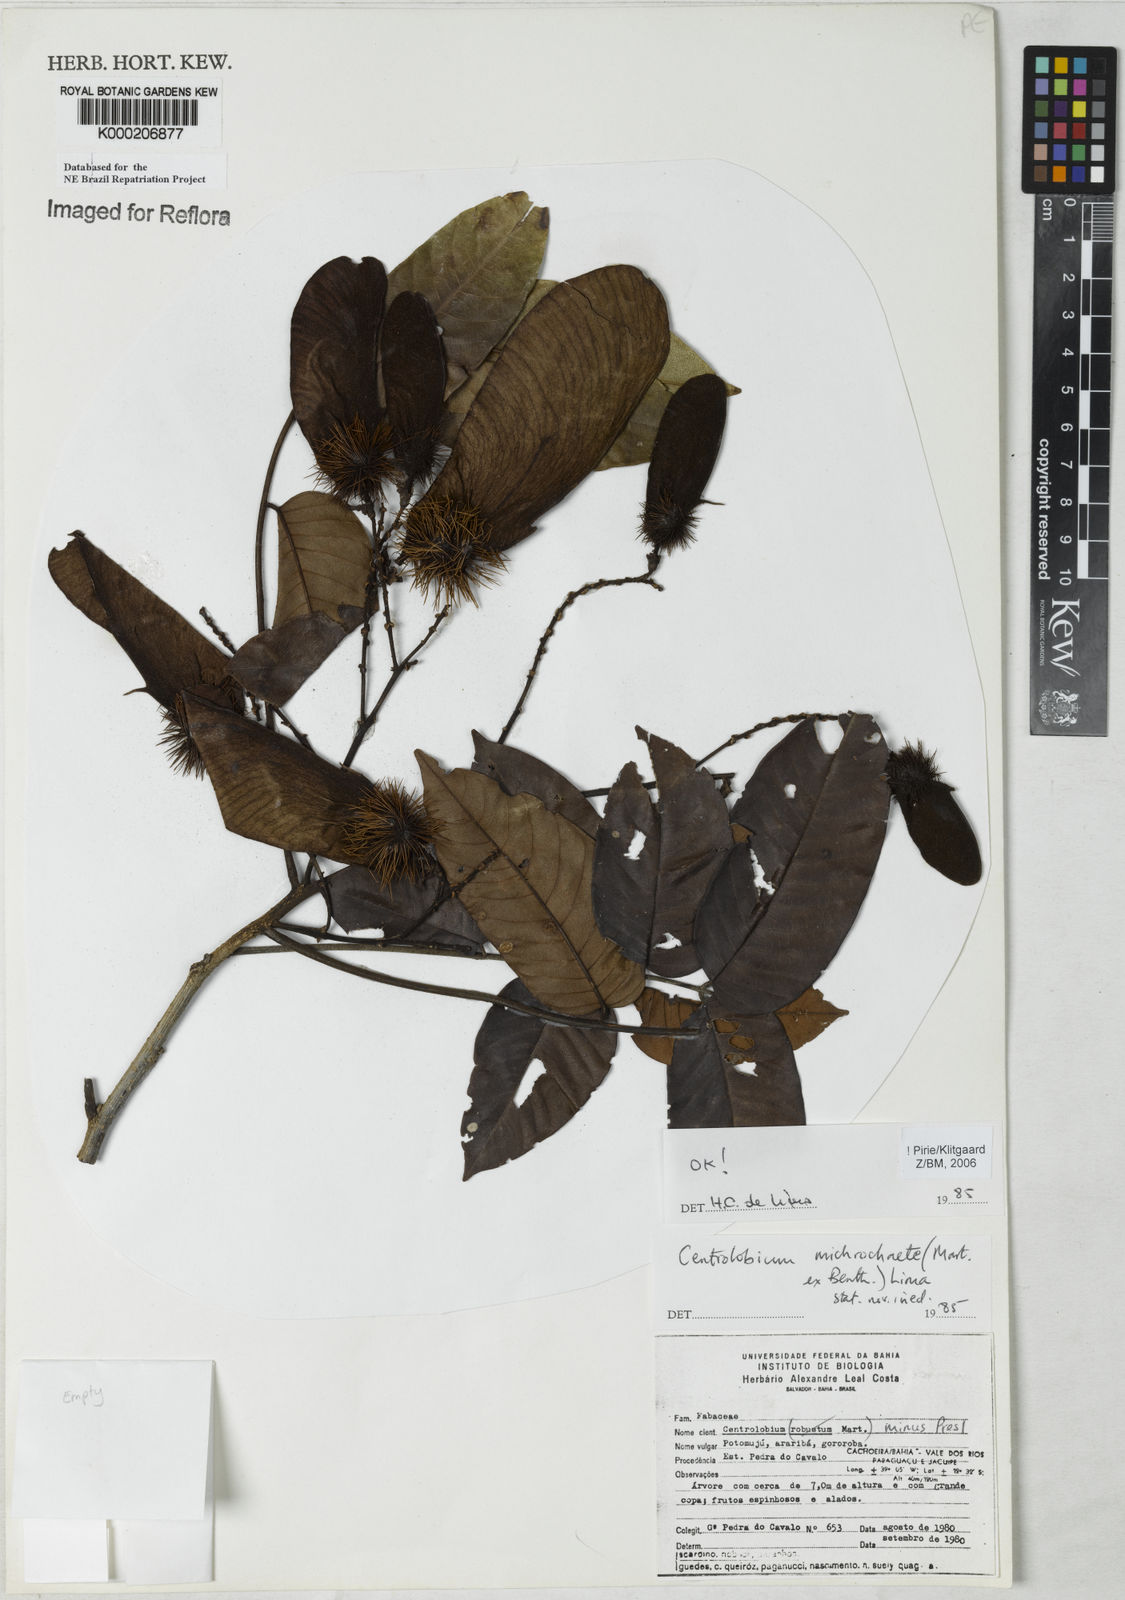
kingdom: Plantae
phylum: Tracheophyta
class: Magnoliopsida
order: Fabales
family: Fabaceae
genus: Centrolobium
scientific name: Centrolobium microchaete
